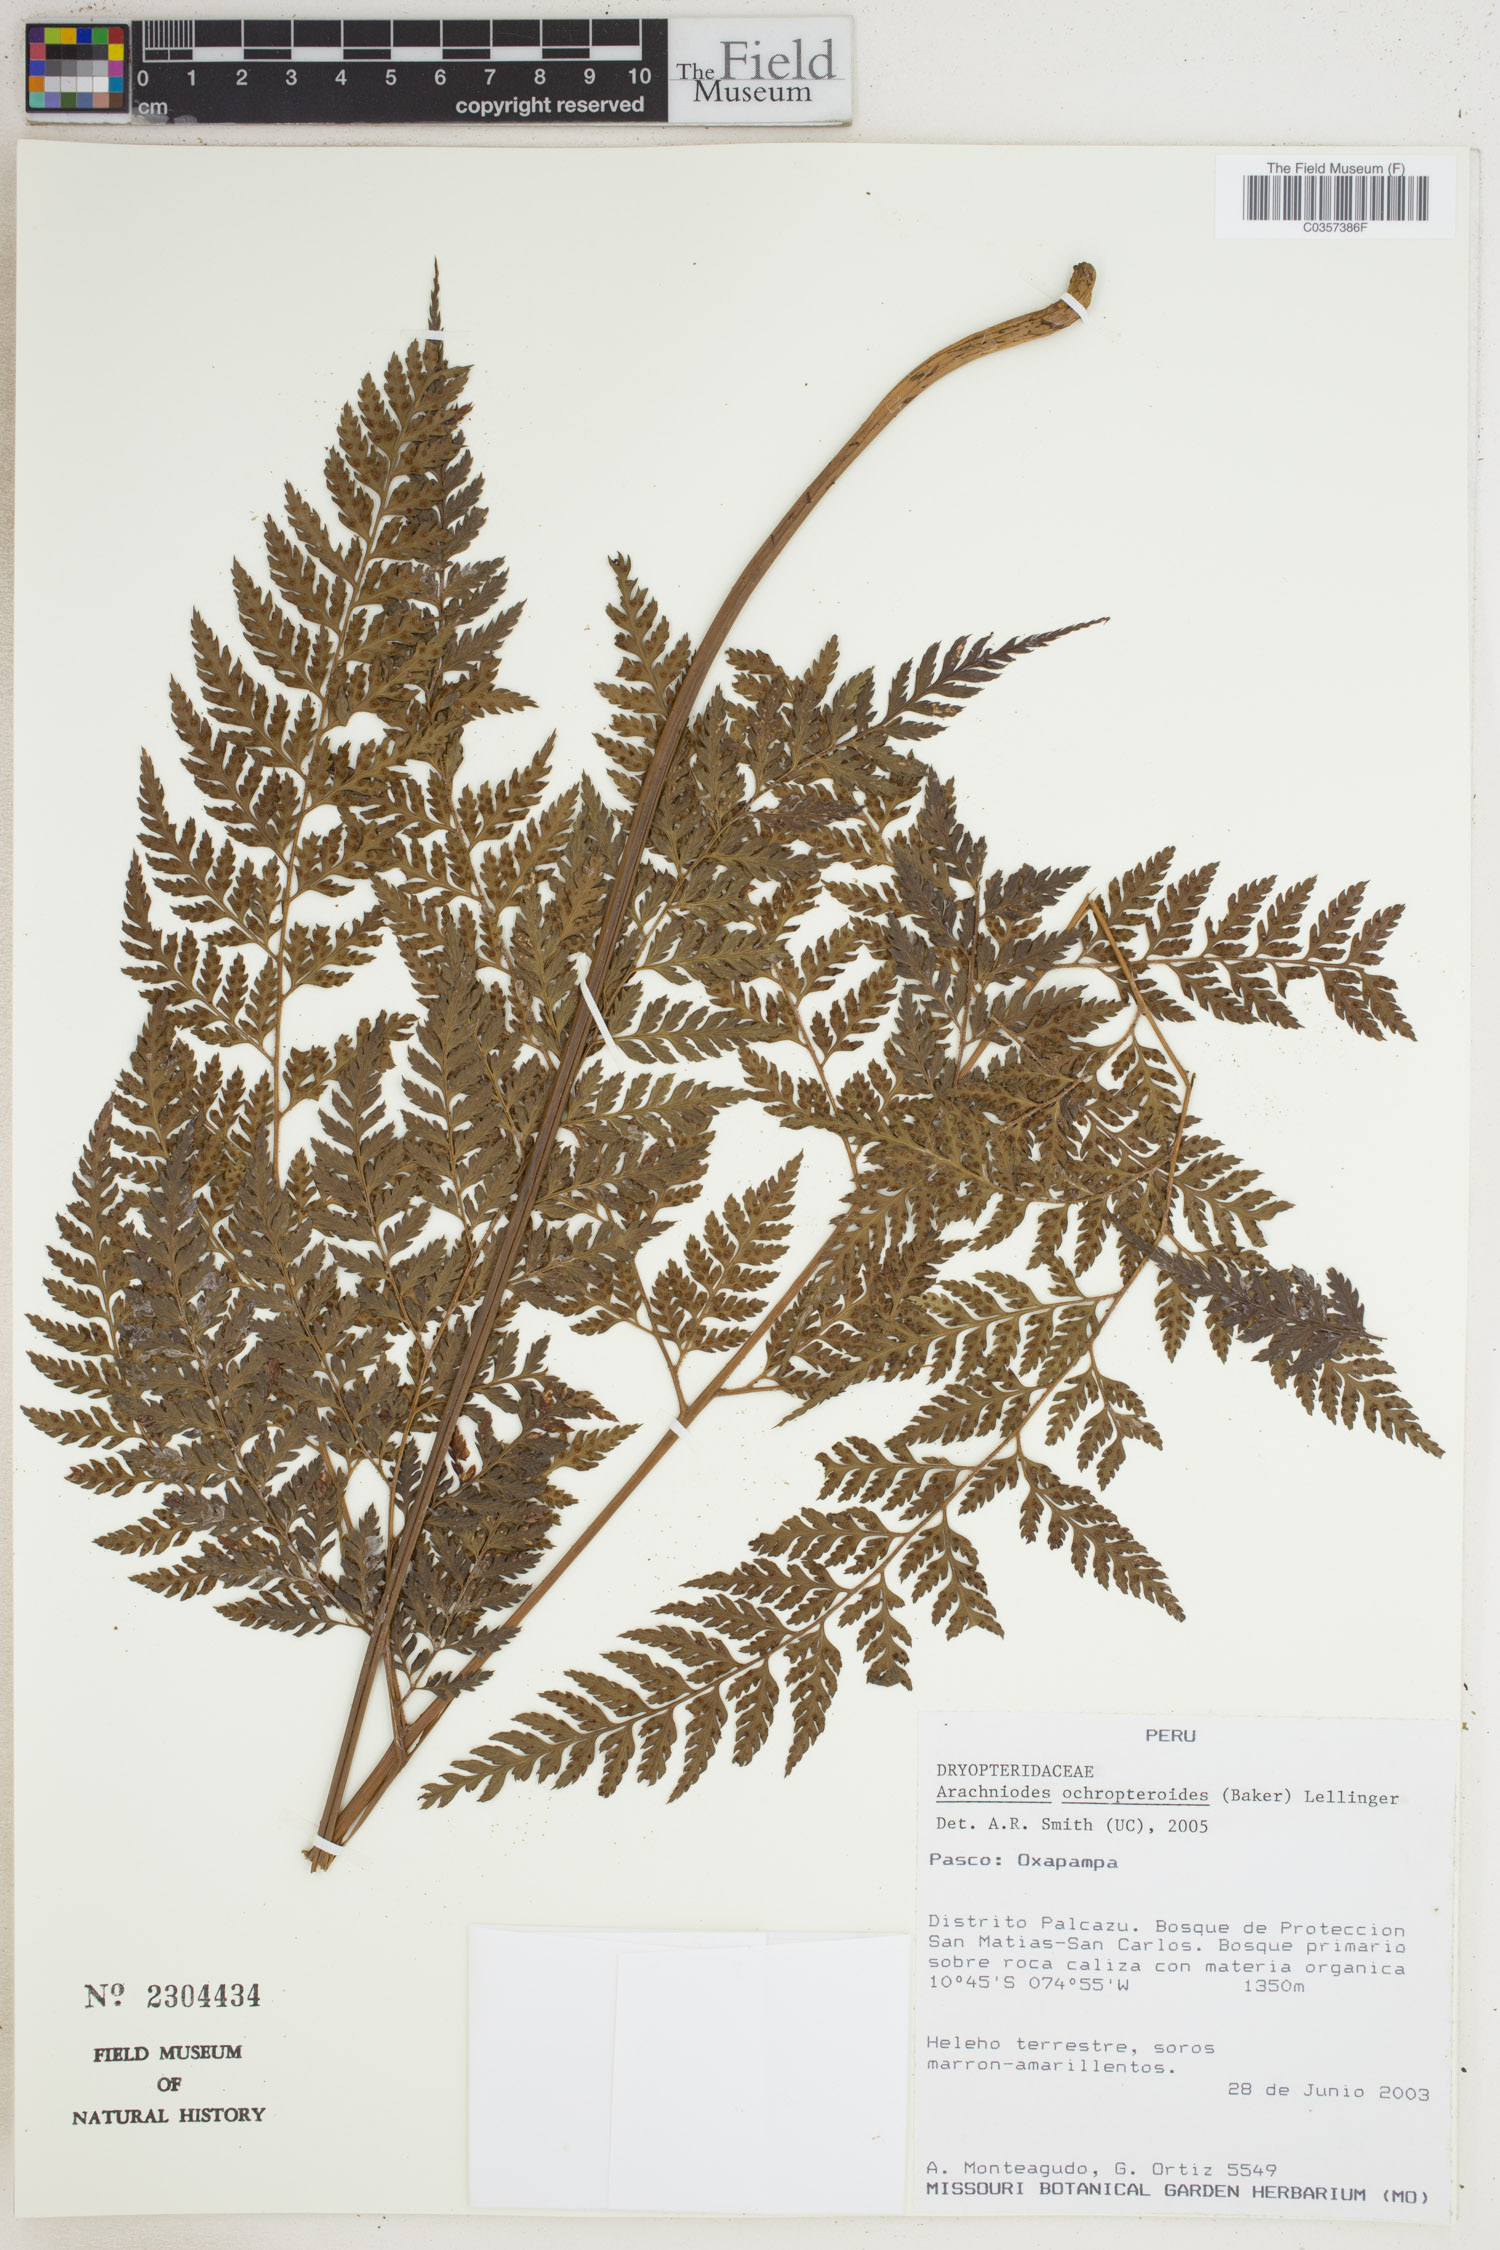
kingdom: Plantae
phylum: Tracheophyta
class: Polypodiopsida
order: Polypodiales
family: Dryopteridaceae
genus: Olfersia
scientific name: Olfersia ochropteroides
